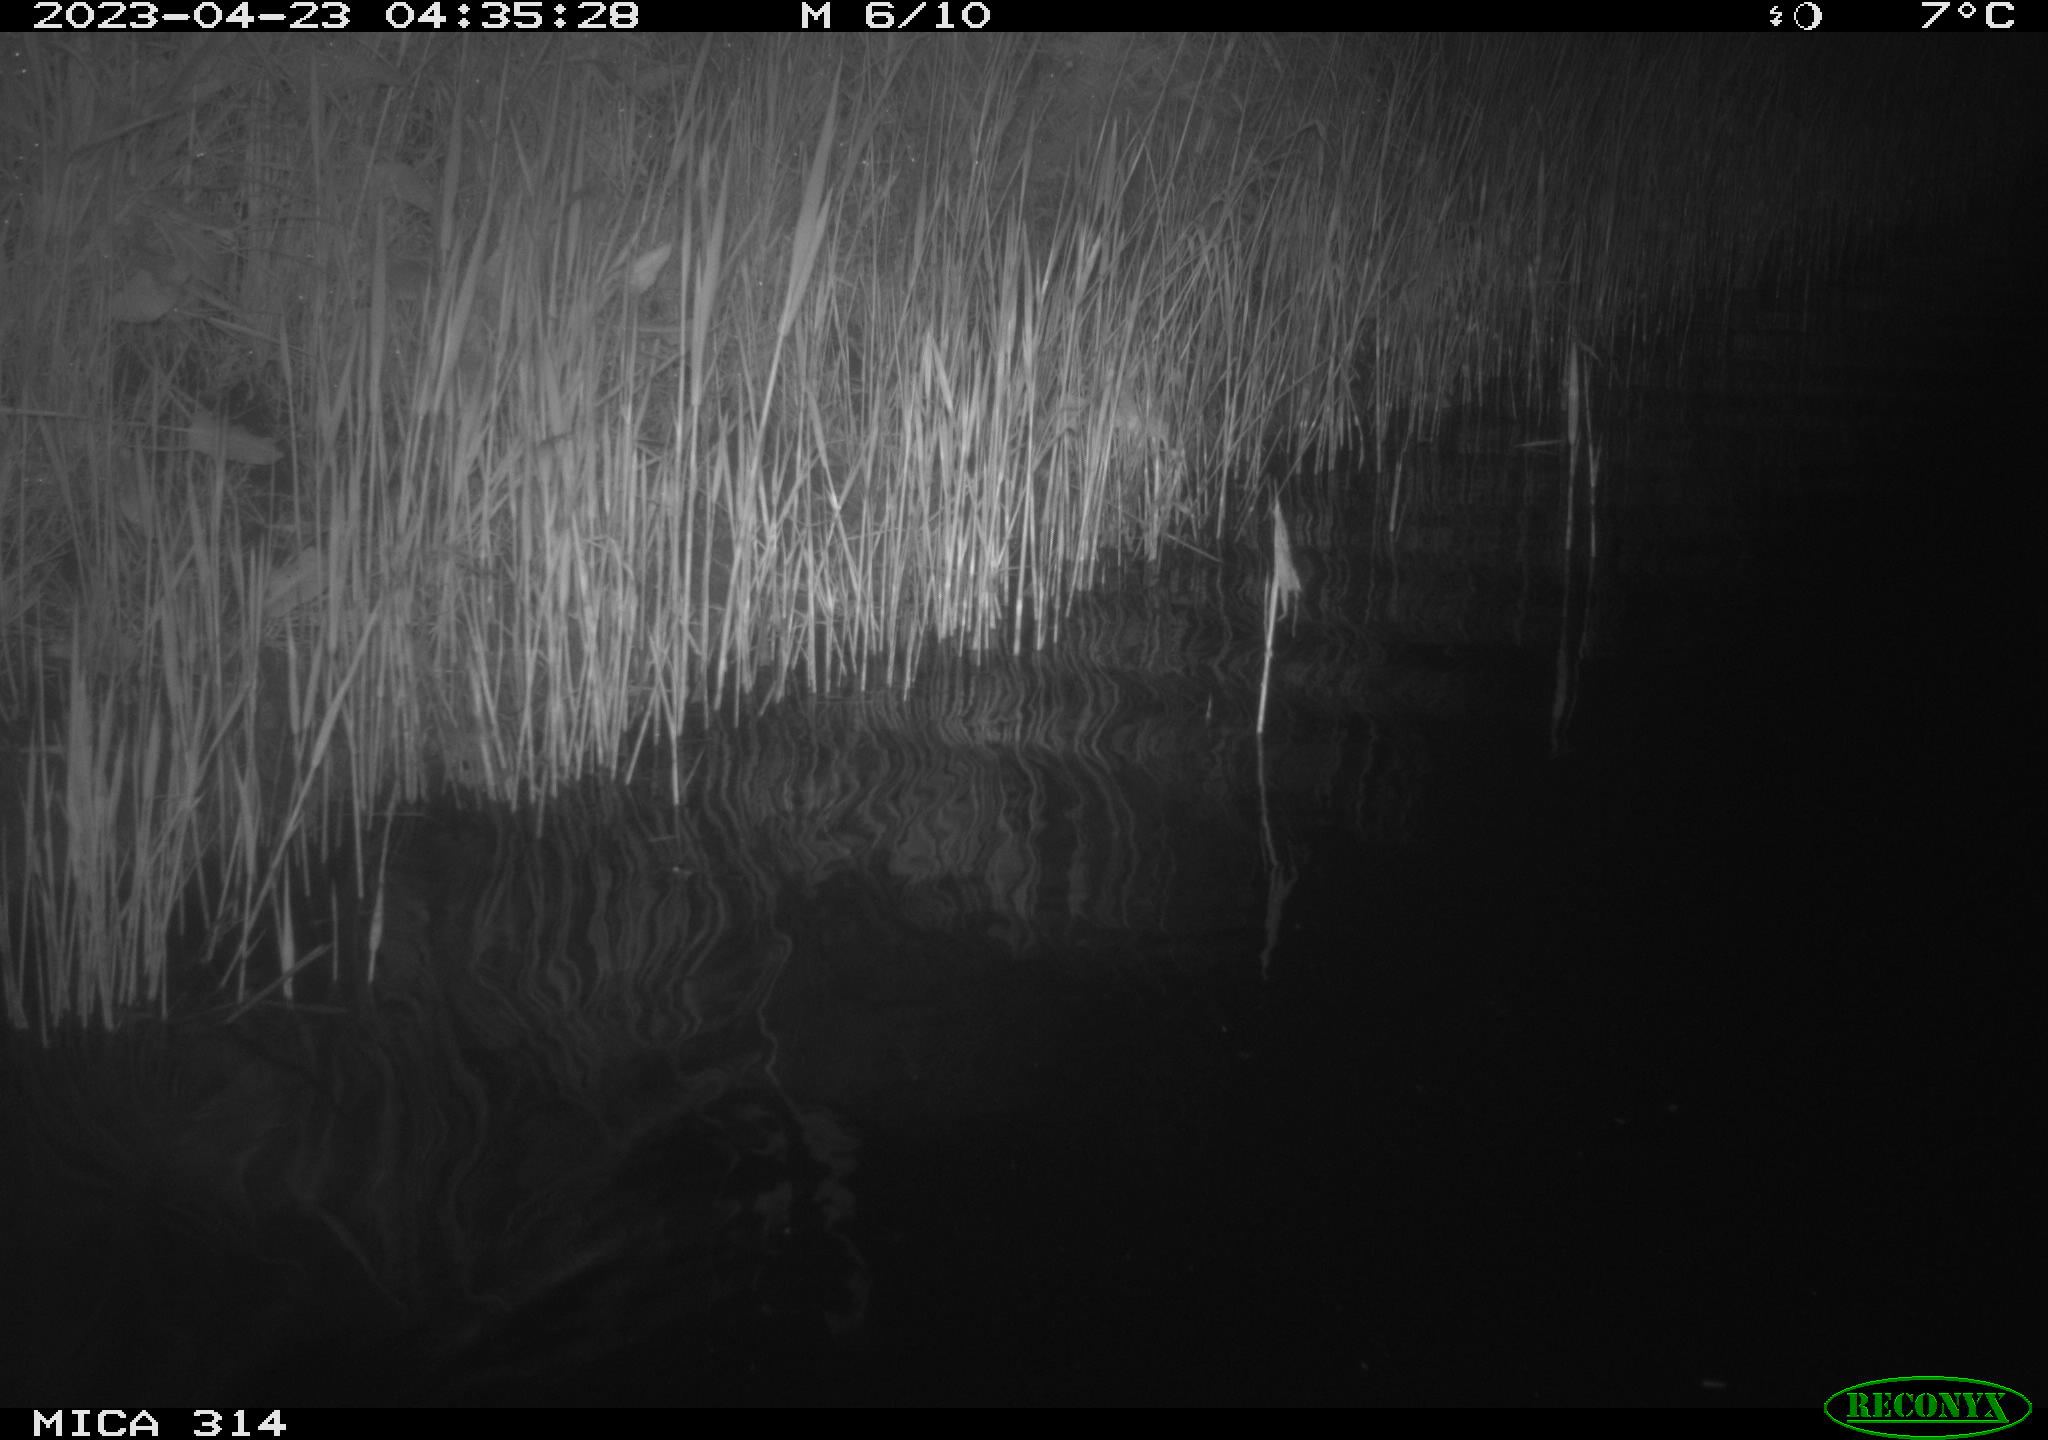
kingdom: Animalia
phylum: Chordata
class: Aves
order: Anseriformes
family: Anatidae
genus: Anas
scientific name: Anas
